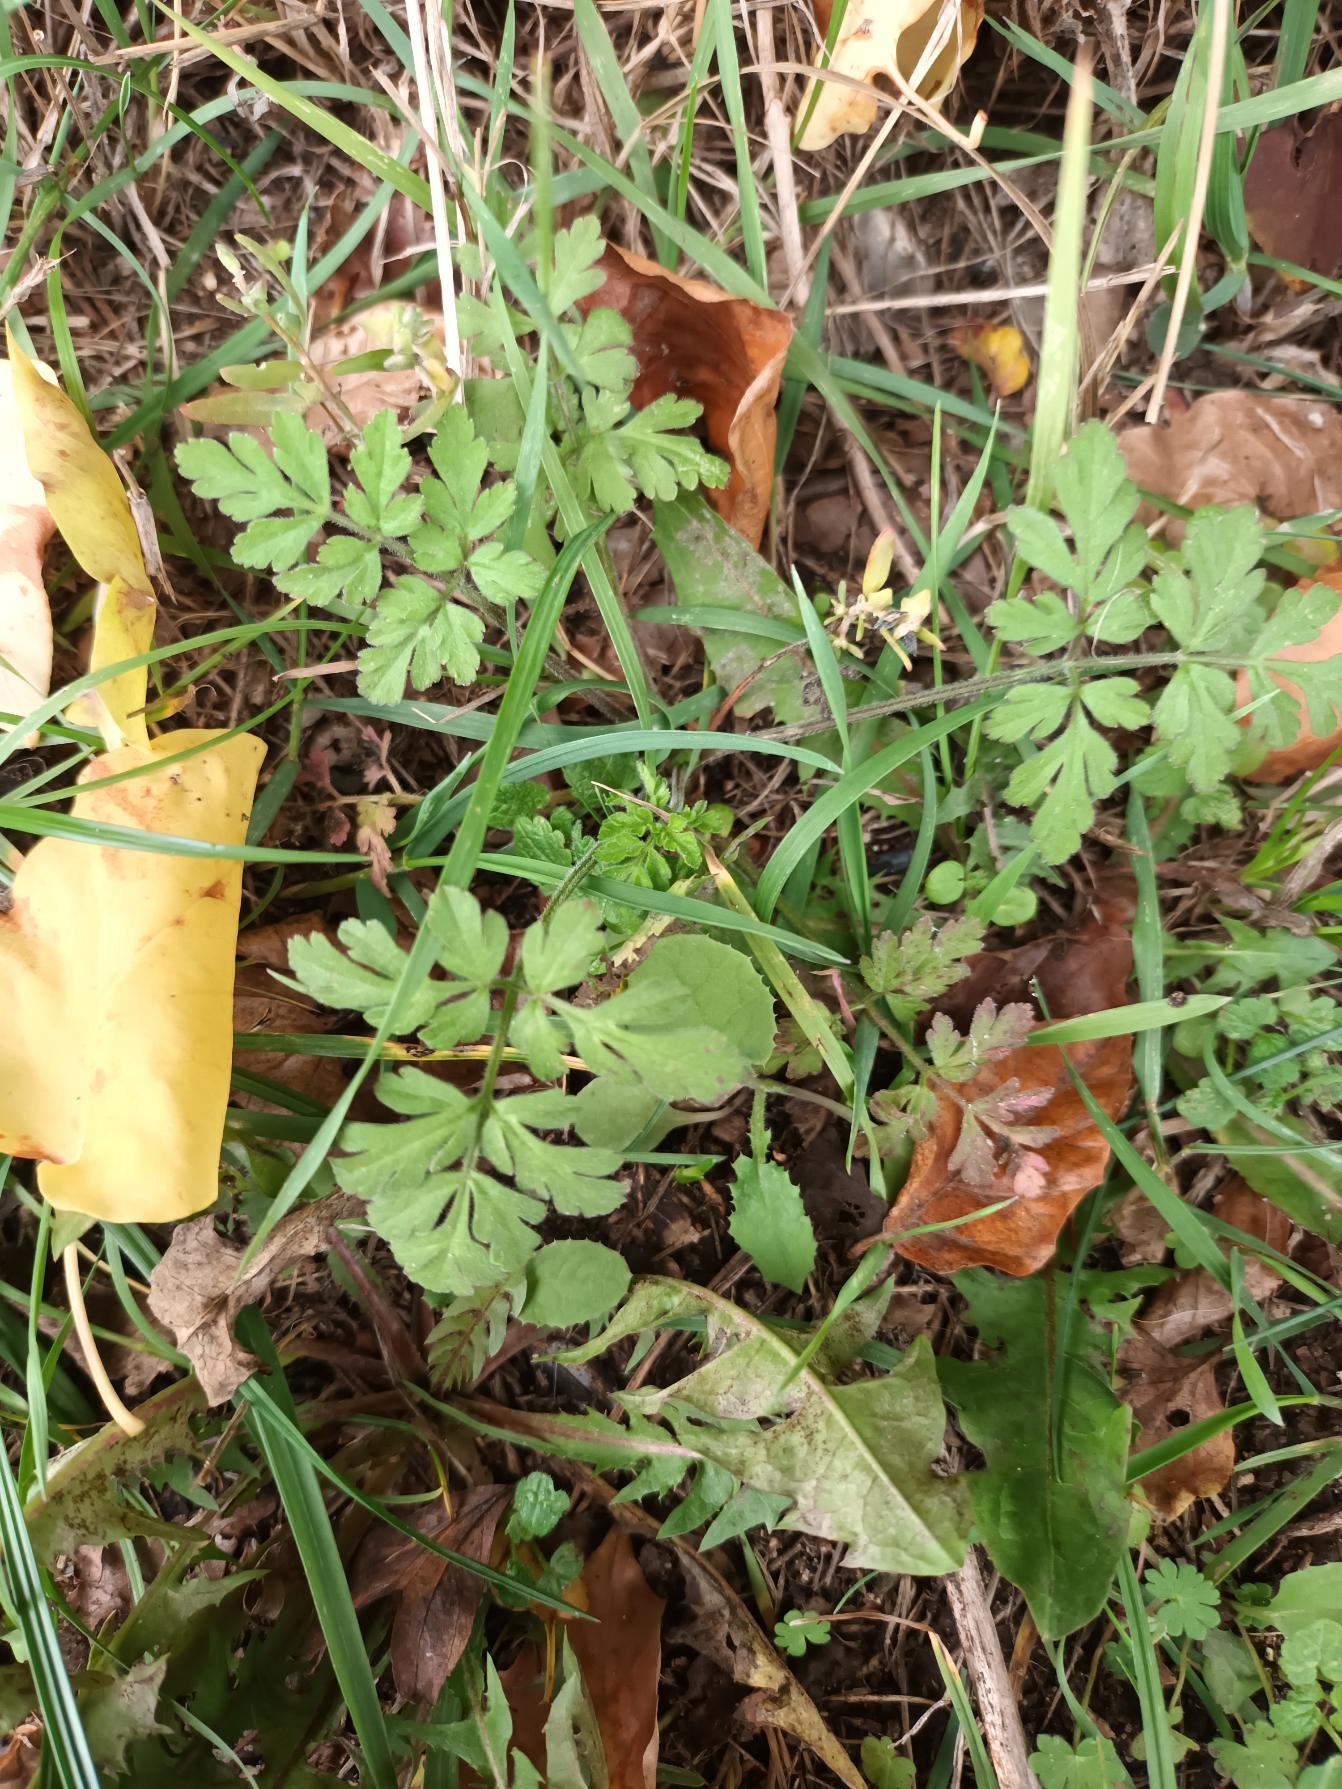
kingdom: Plantae
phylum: Tracheophyta
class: Magnoliopsida
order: Apiales
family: Apiaceae
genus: Chaerophyllum
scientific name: Chaerophyllum temulum
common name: Almindelig hulsvøb
